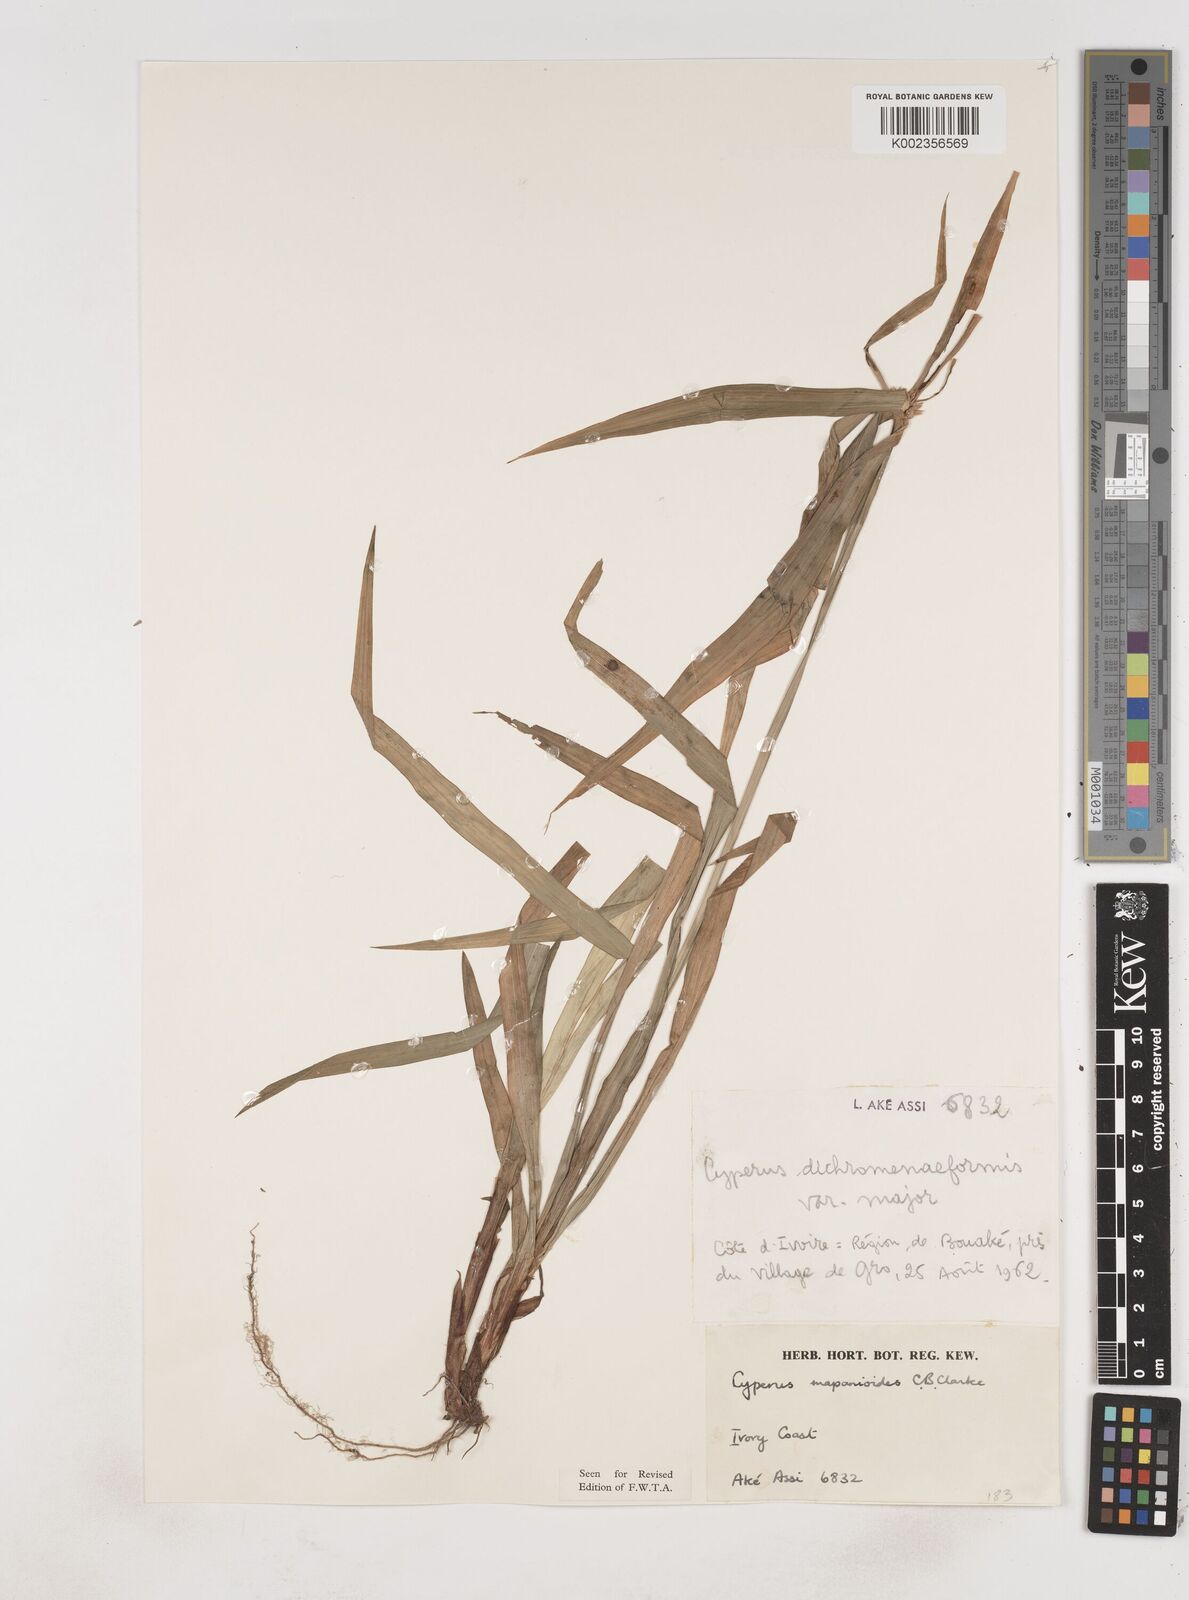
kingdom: Plantae
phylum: Tracheophyta
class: Liliopsida
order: Poales
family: Cyperaceae
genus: Cyperus
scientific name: Cyperus mapanioides
